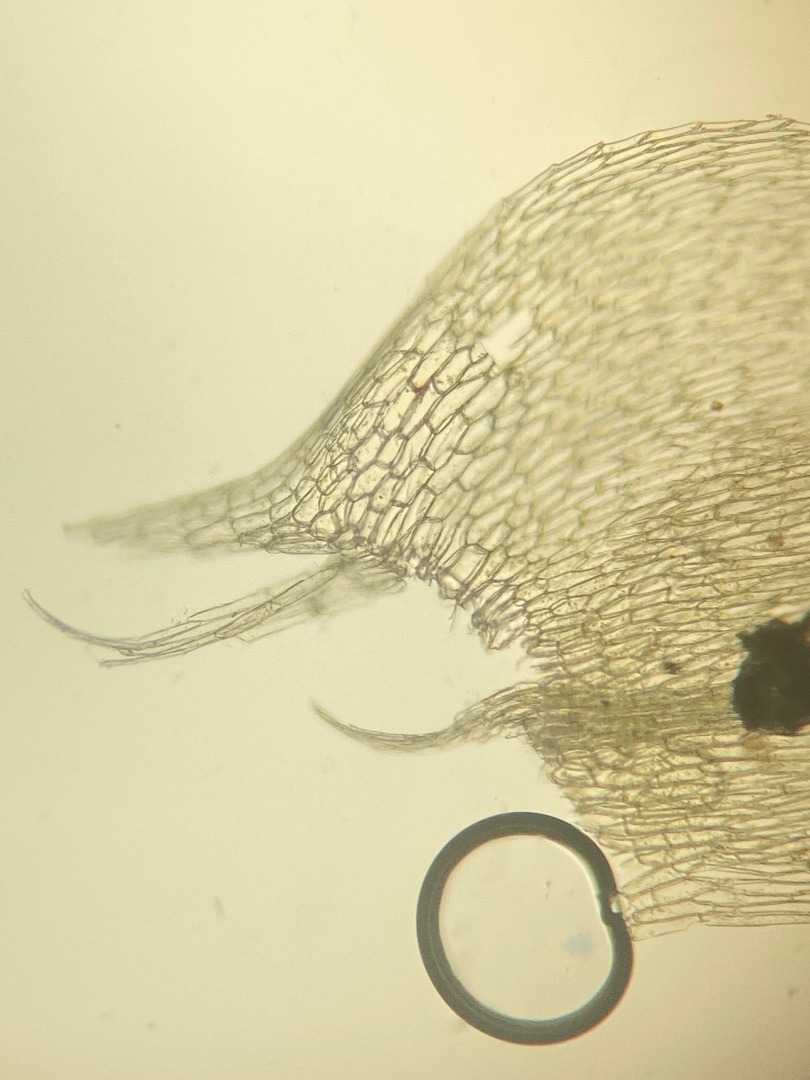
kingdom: Plantae
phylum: Bryophyta
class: Bryopsida
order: Hypnales
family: Brachytheciaceae
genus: Brachythecium
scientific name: Brachythecium rutabulum
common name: Almindelig kortkapsel
